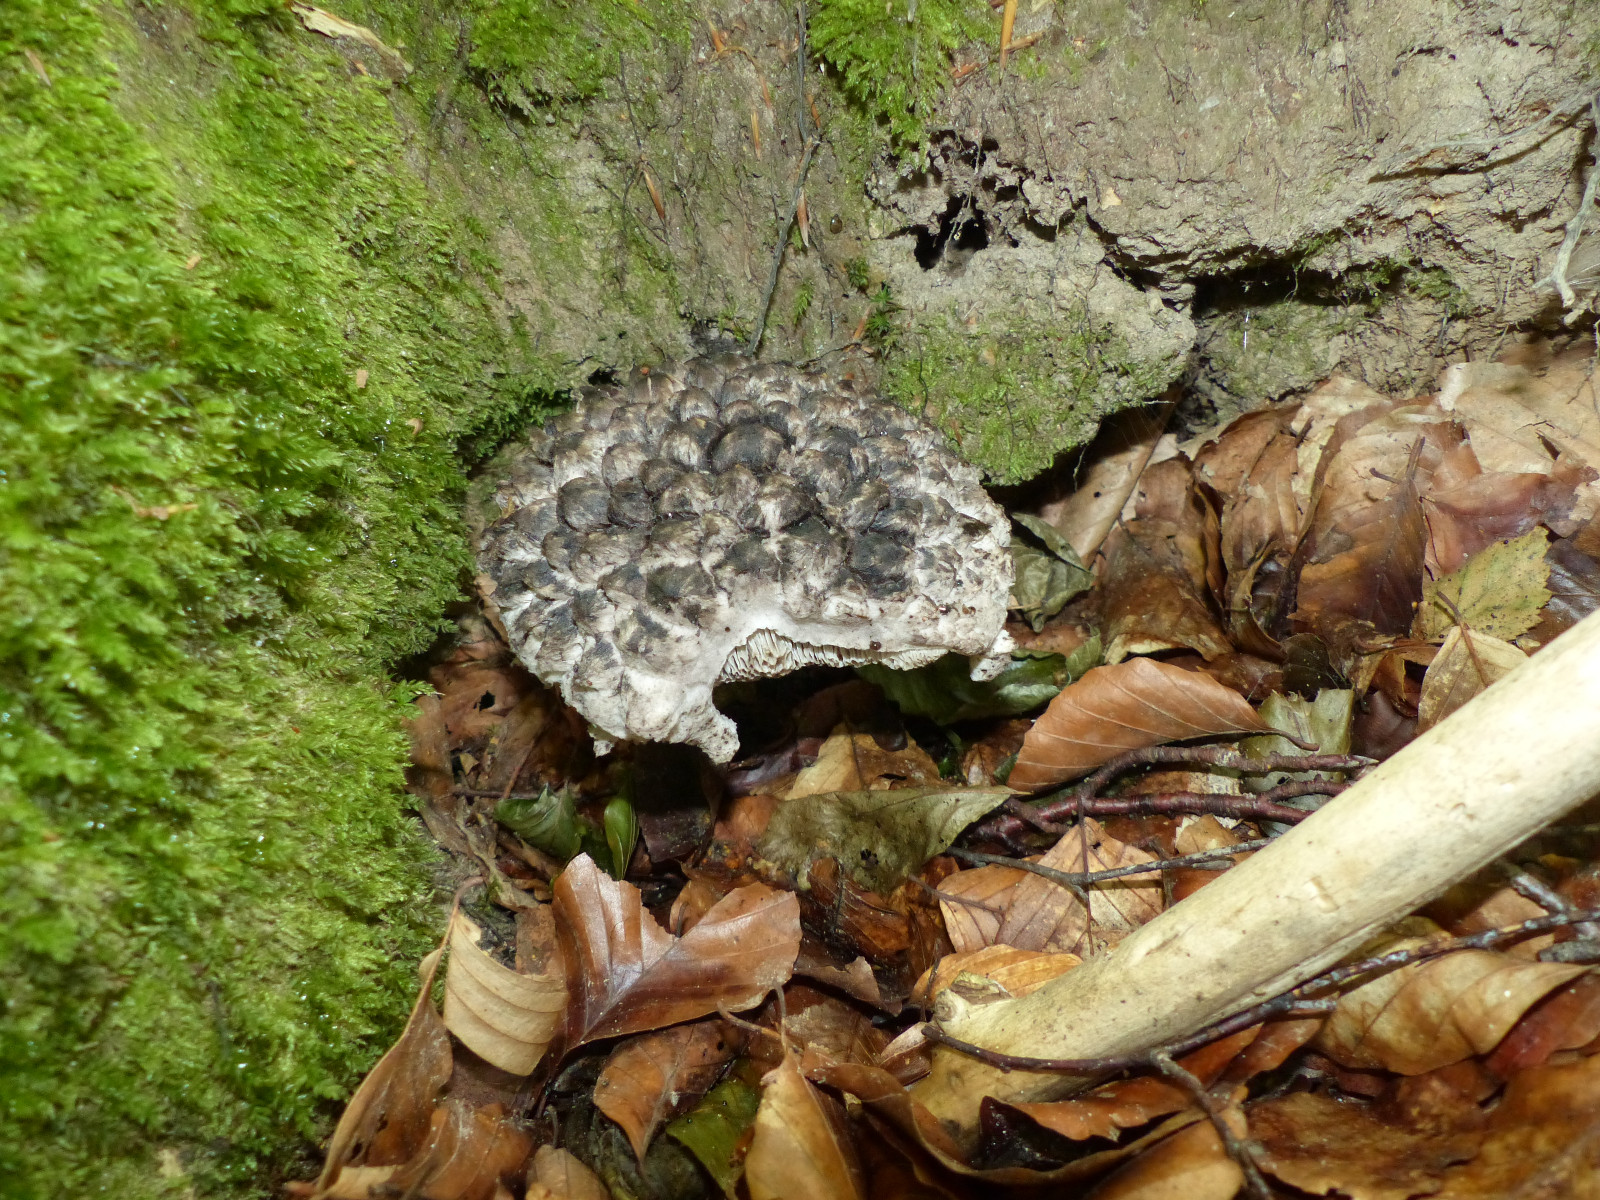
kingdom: Fungi
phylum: Basidiomycota
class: Agaricomycetes
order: Boletales
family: Boletaceae
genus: Strobilomyces
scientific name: Strobilomyces strobilaceus
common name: koglerørhat
